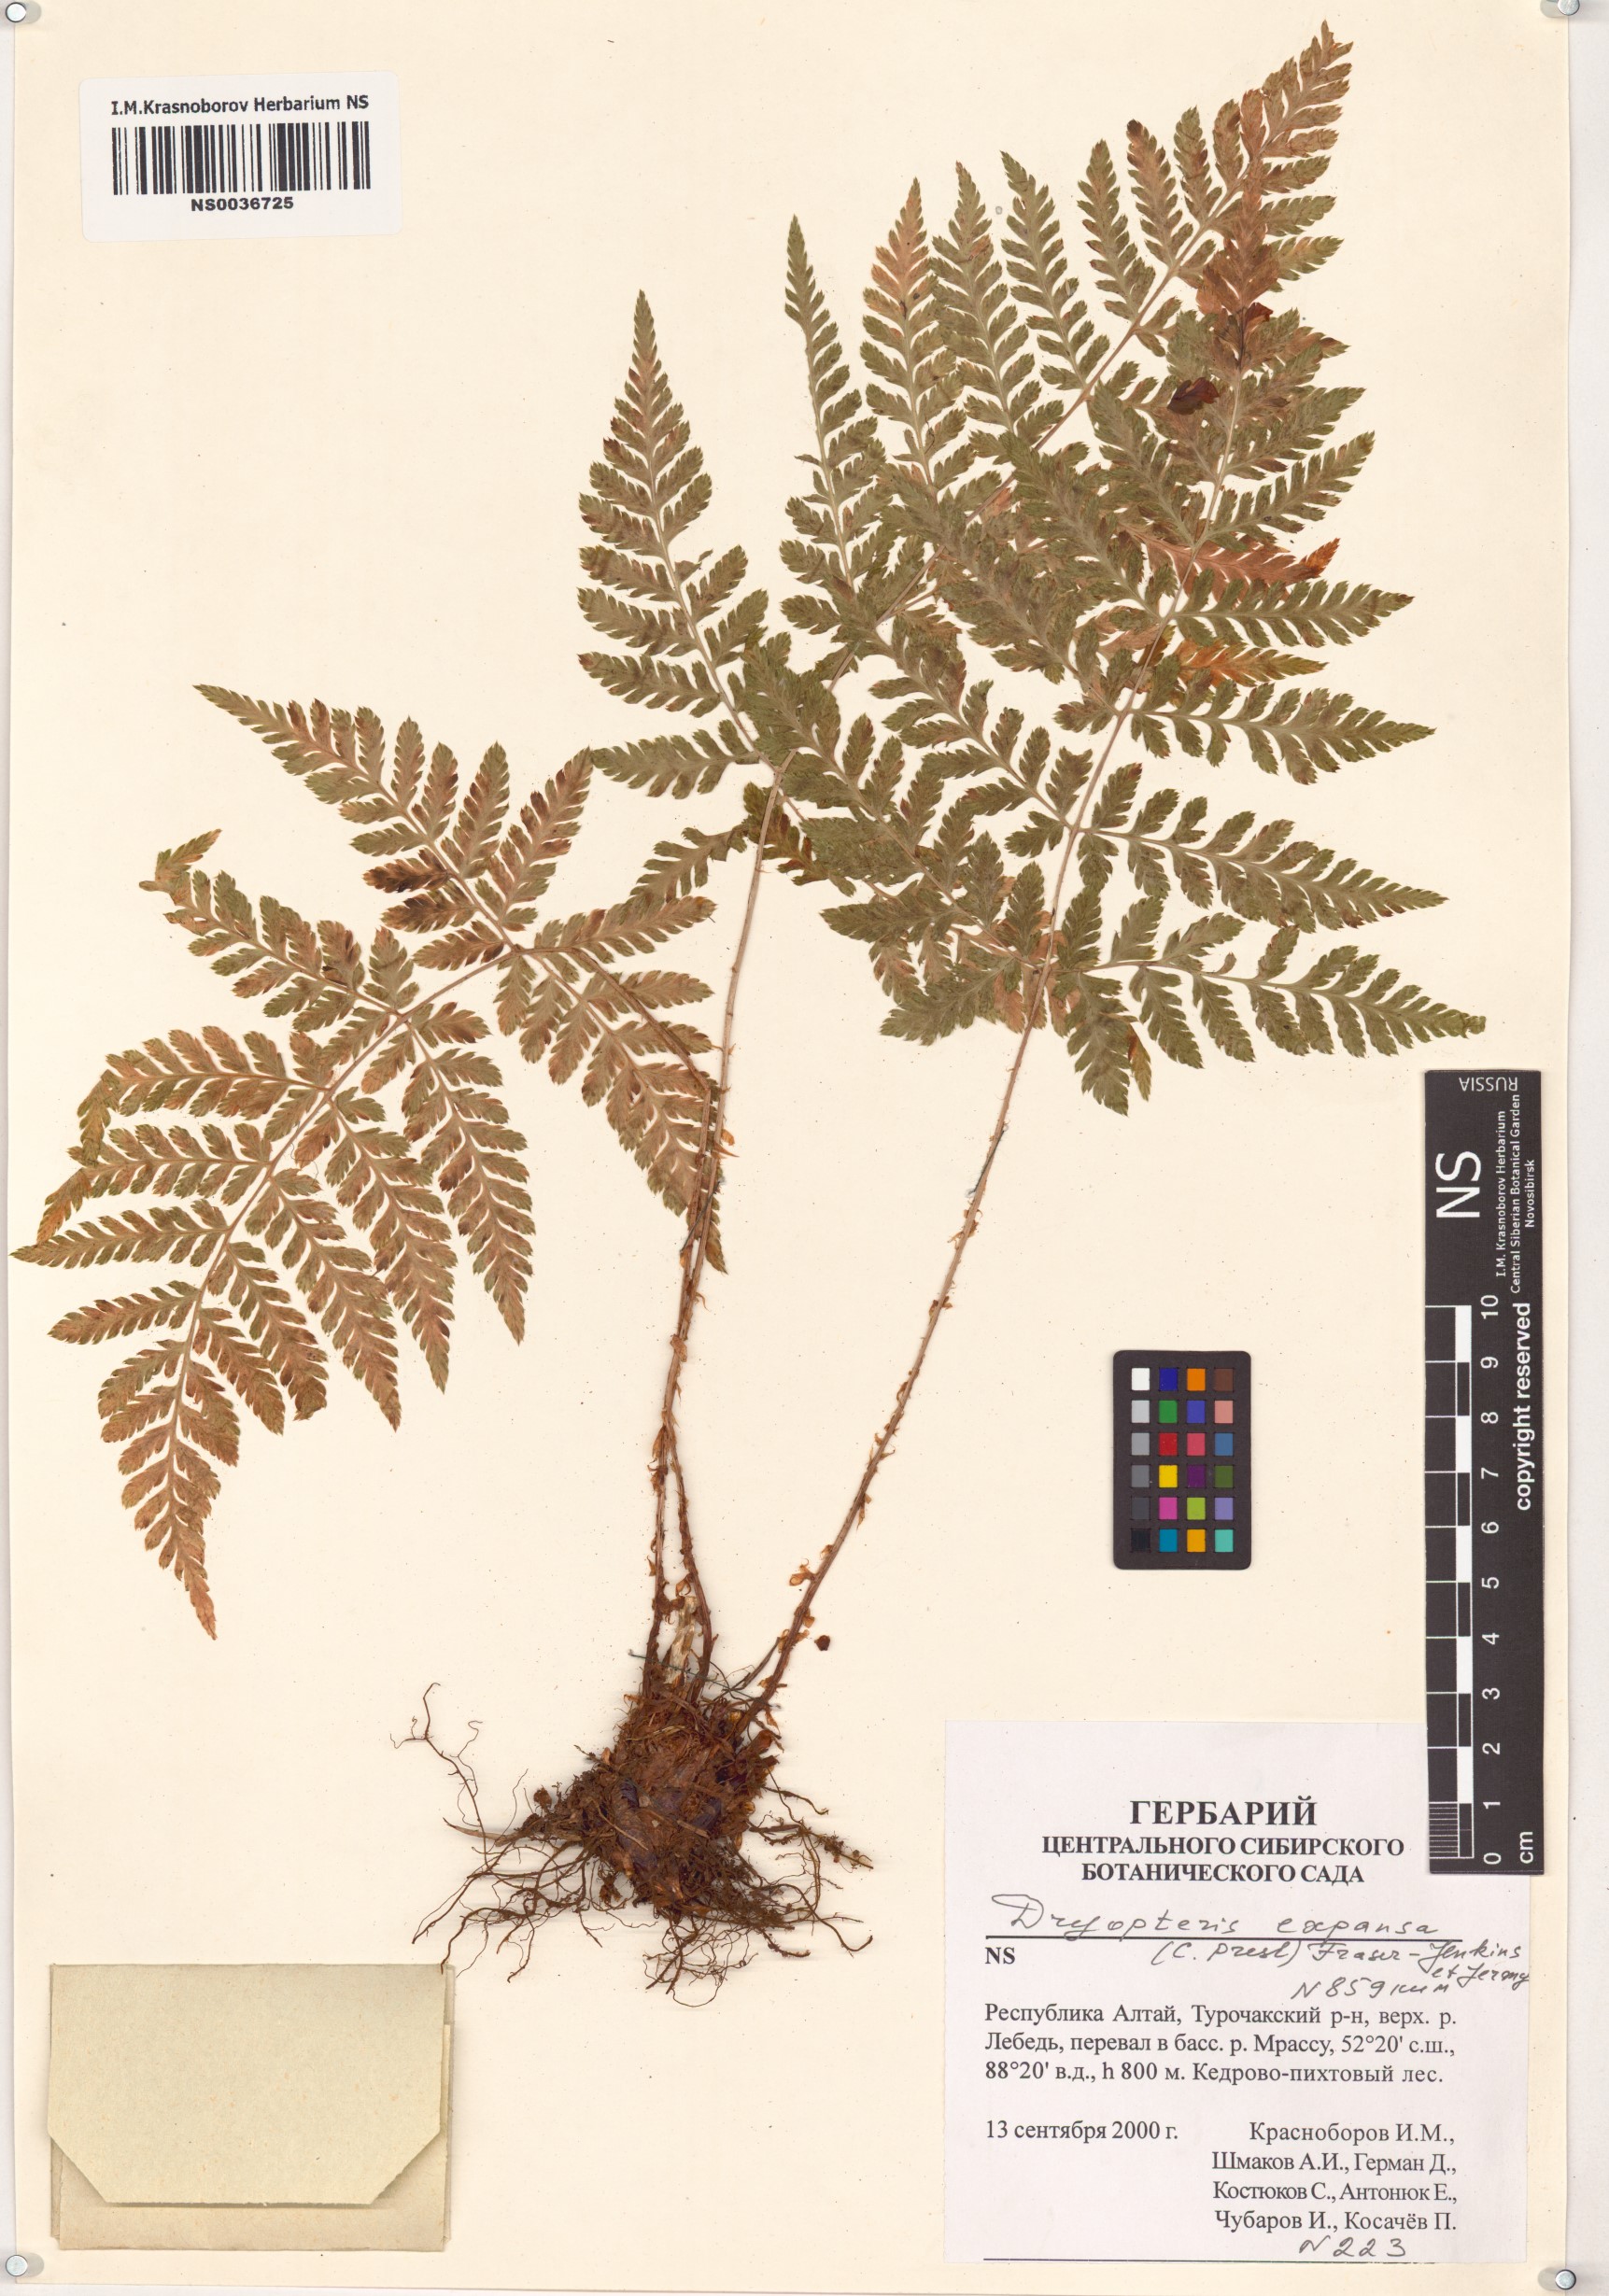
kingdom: Plantae
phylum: Tracheophyta
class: Polypodiopsida
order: Polypodiales
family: Dryopteridaceae
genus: Dryopteris
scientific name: Dryopteris expansa
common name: Northern buckler fern
